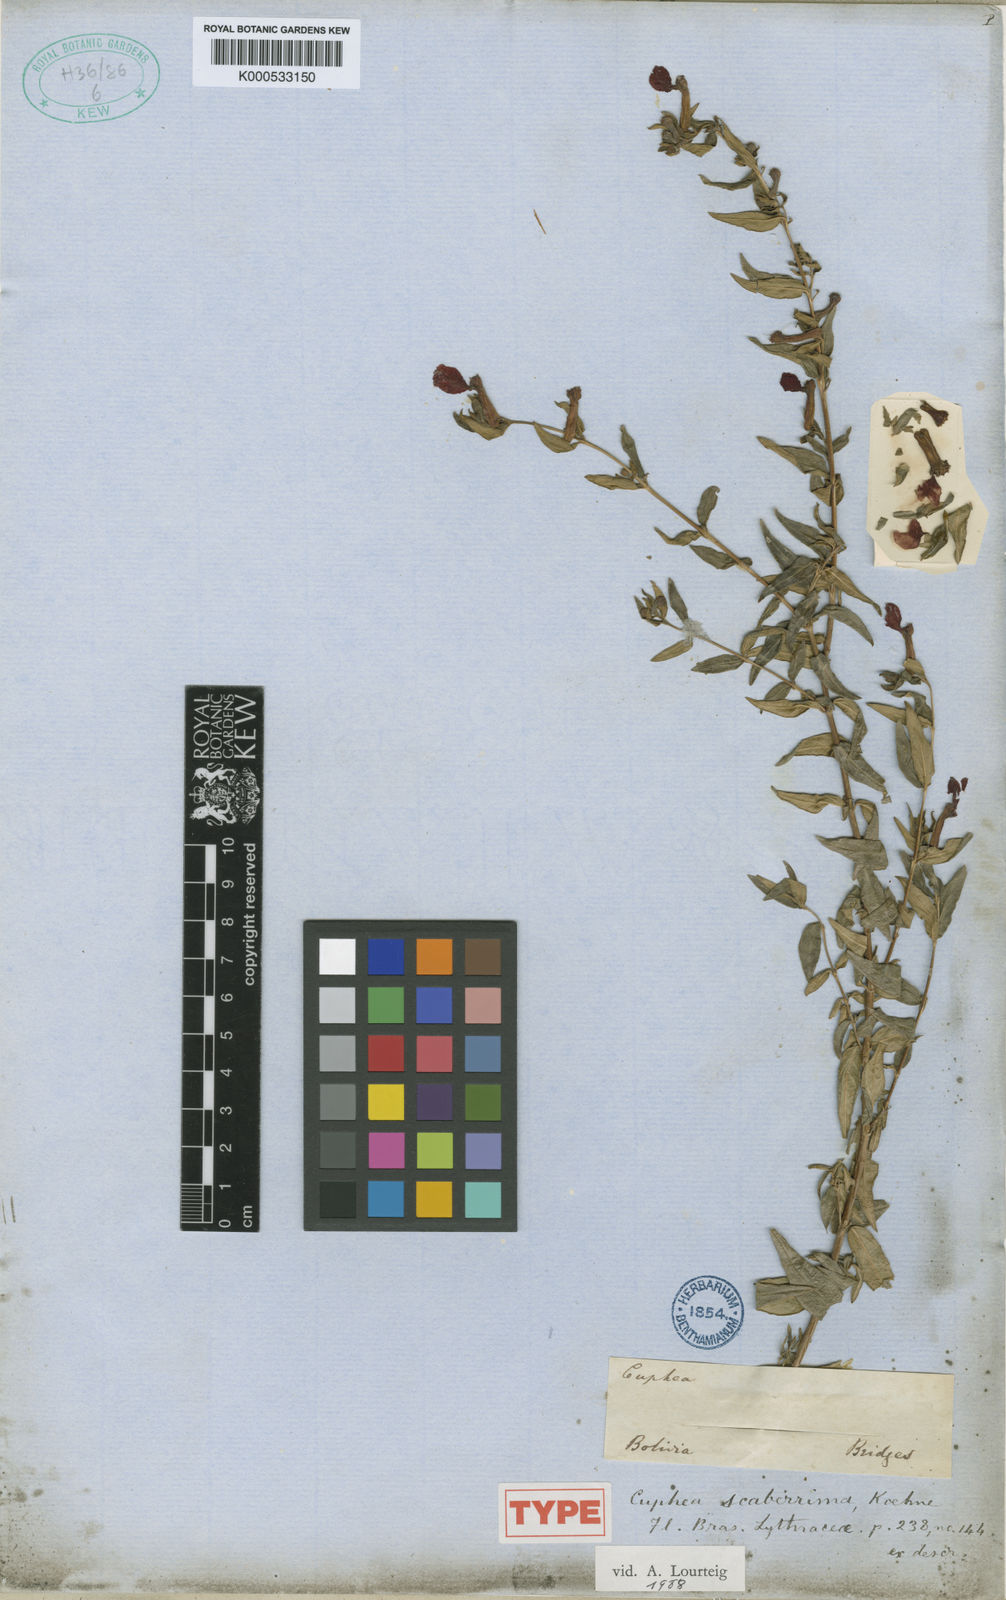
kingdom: Plantae
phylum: Tracheophyta
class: Magnoliopsida
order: Myrtales
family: Lythraceae
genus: Cuphea
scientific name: Cuphea scaberrima
